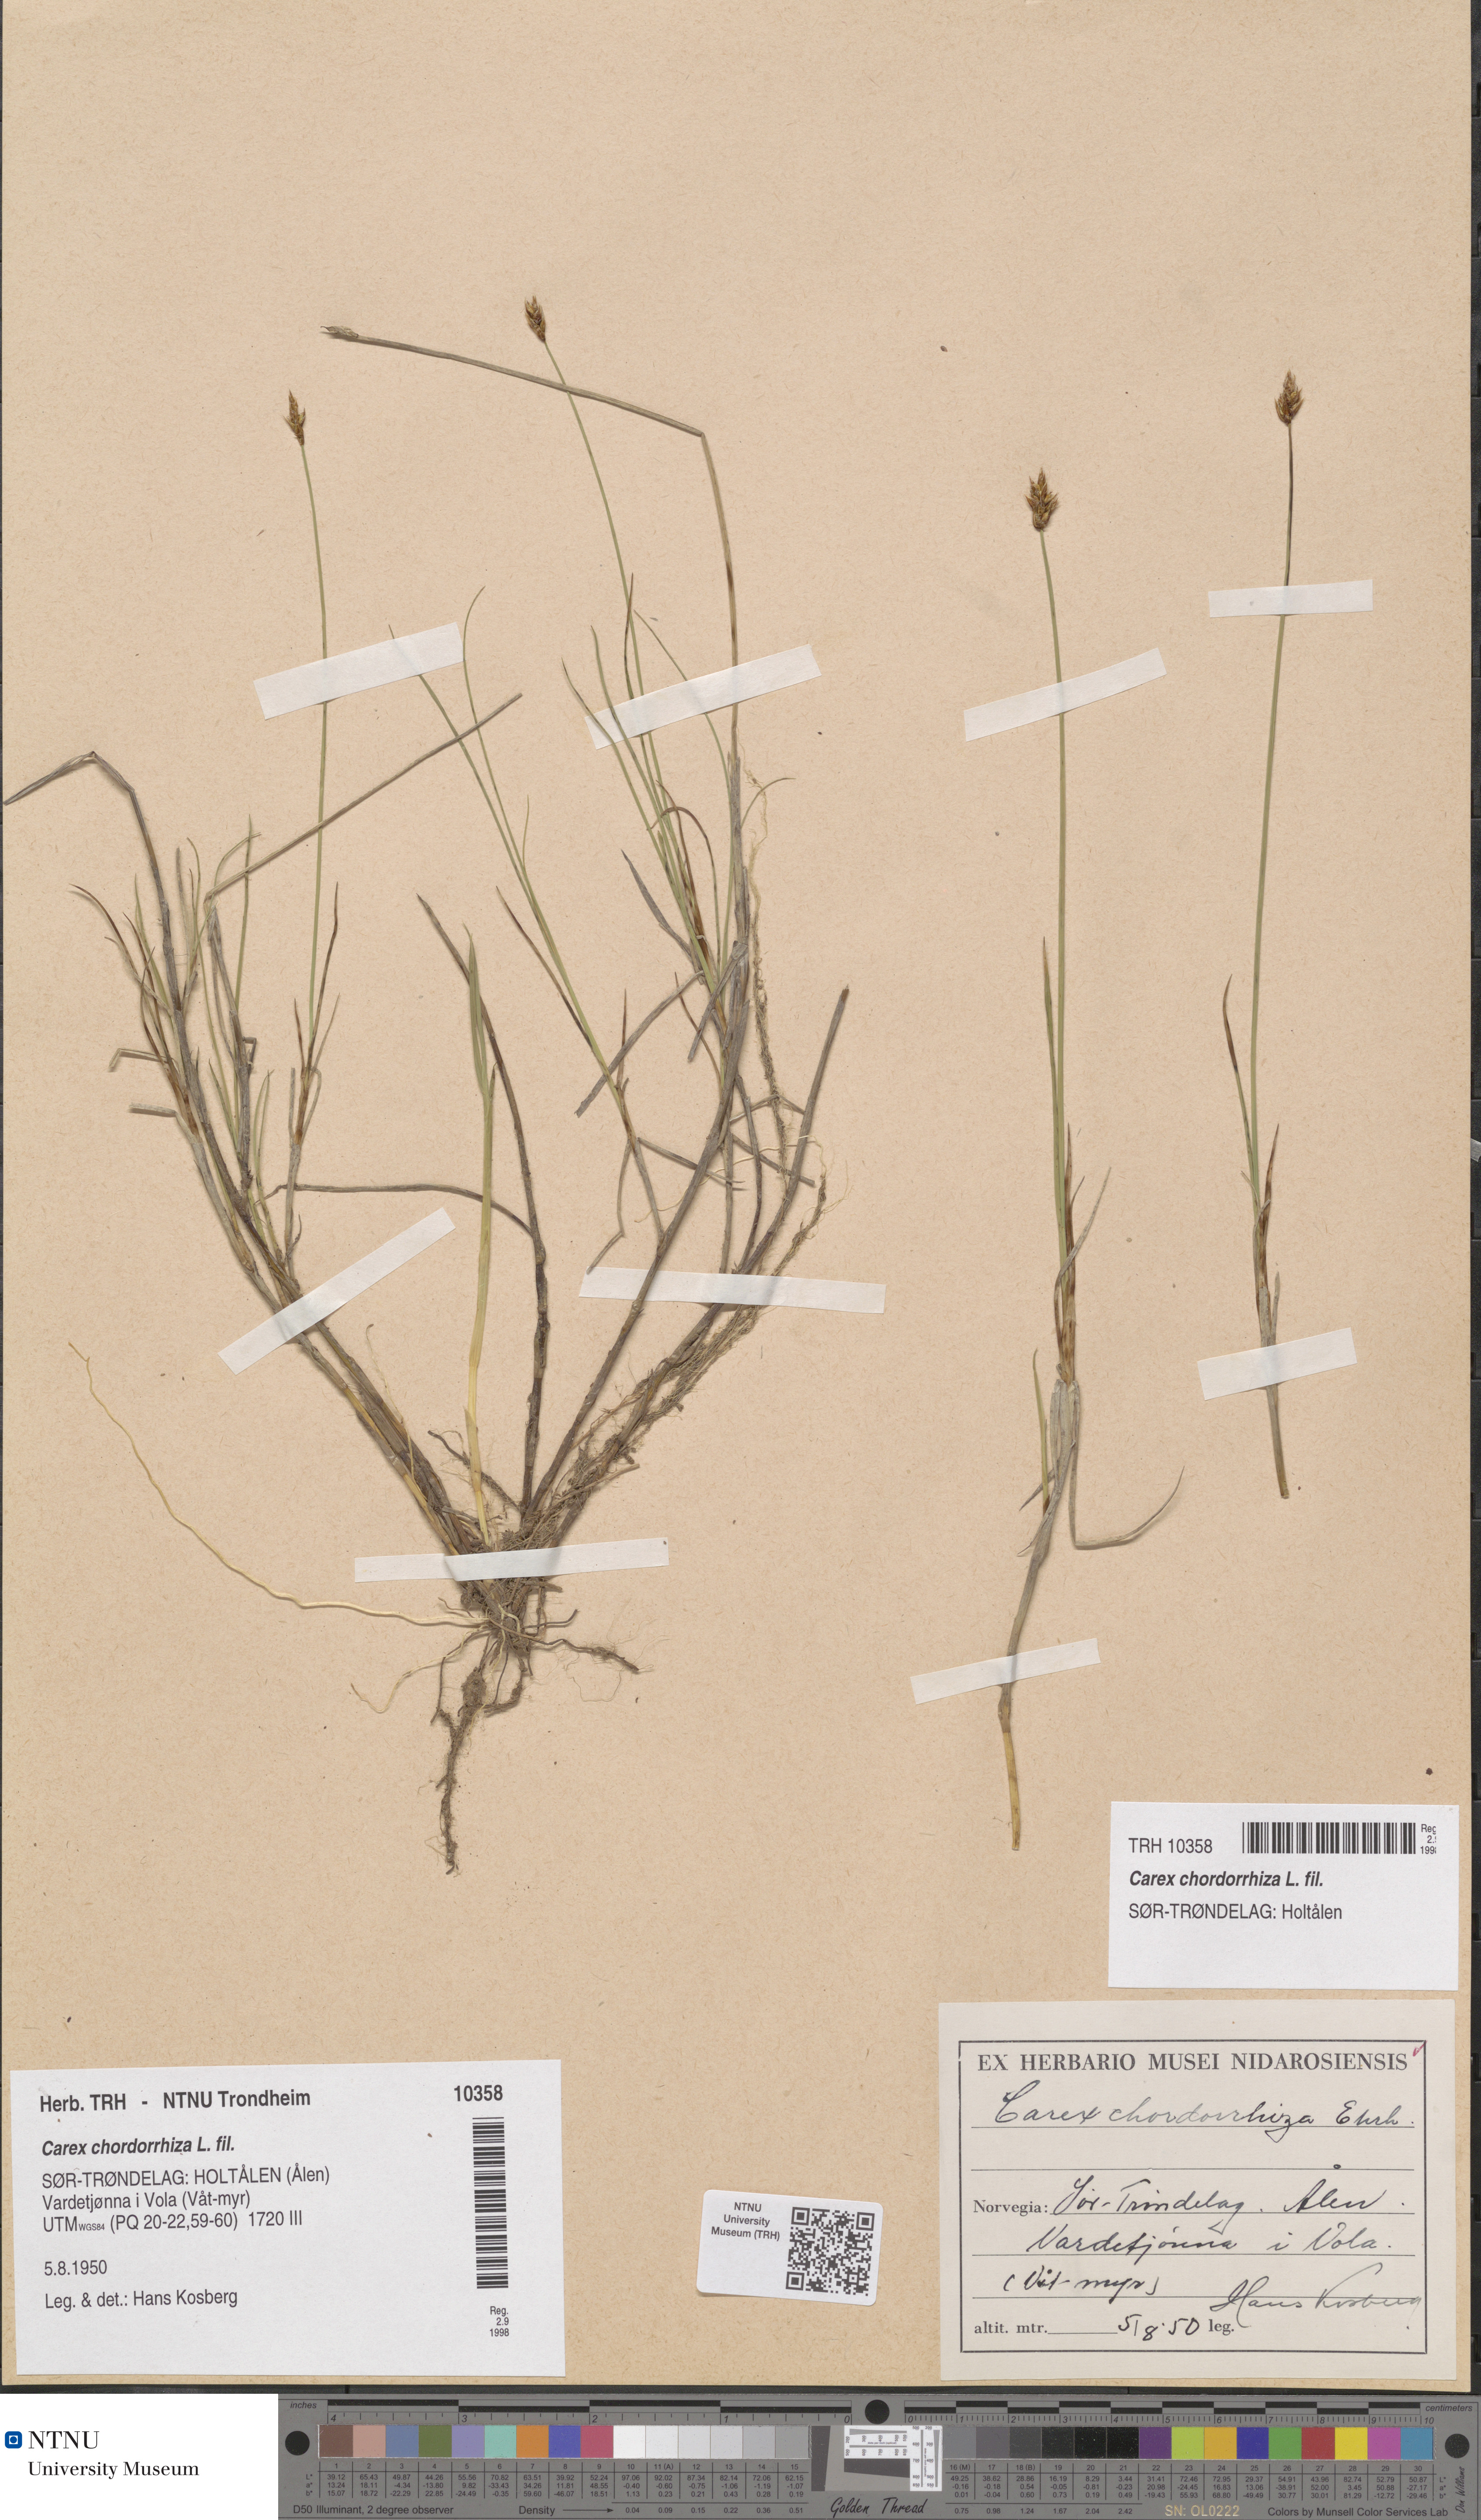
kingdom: Plantae
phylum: Tracheophyta
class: Liliopsida
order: Poales
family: Cyperaceae
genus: Carex
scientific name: Carex chordorrhiza
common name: String sedge
